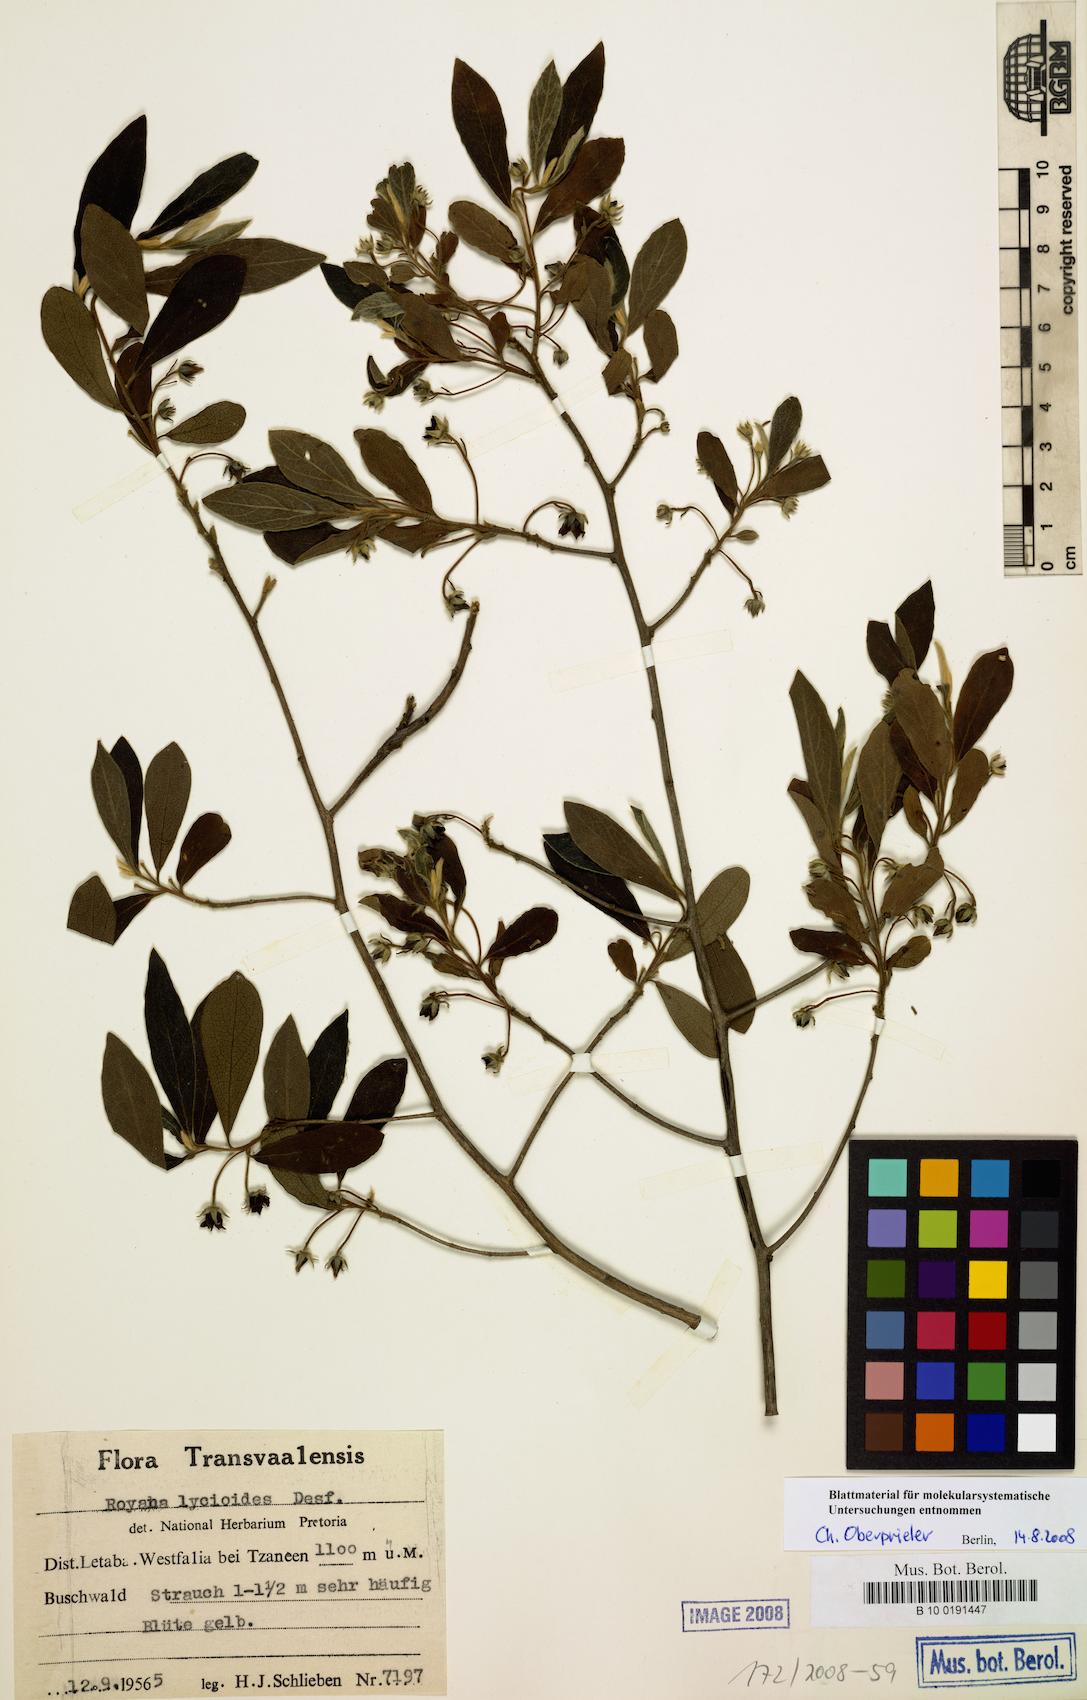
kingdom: Plantae
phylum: Tracheophyta
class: Magnoliopsida
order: Ericales
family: Ebenaceae
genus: Diospyros
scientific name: Diospyros pallens
